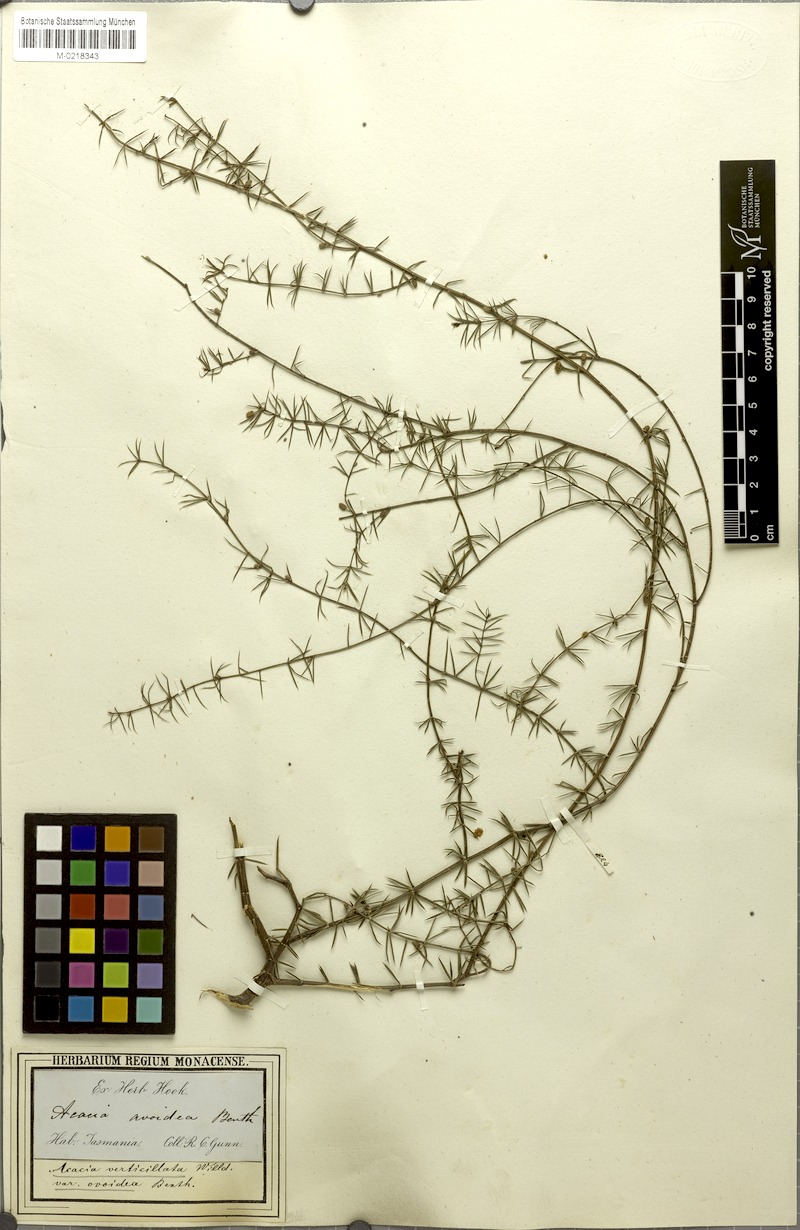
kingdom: Plantae
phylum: Tracheophyta
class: Magnoliopsida
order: Fabales
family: Fabaceae
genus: Acacia
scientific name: Acacia verticillata
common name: Prickly moses
